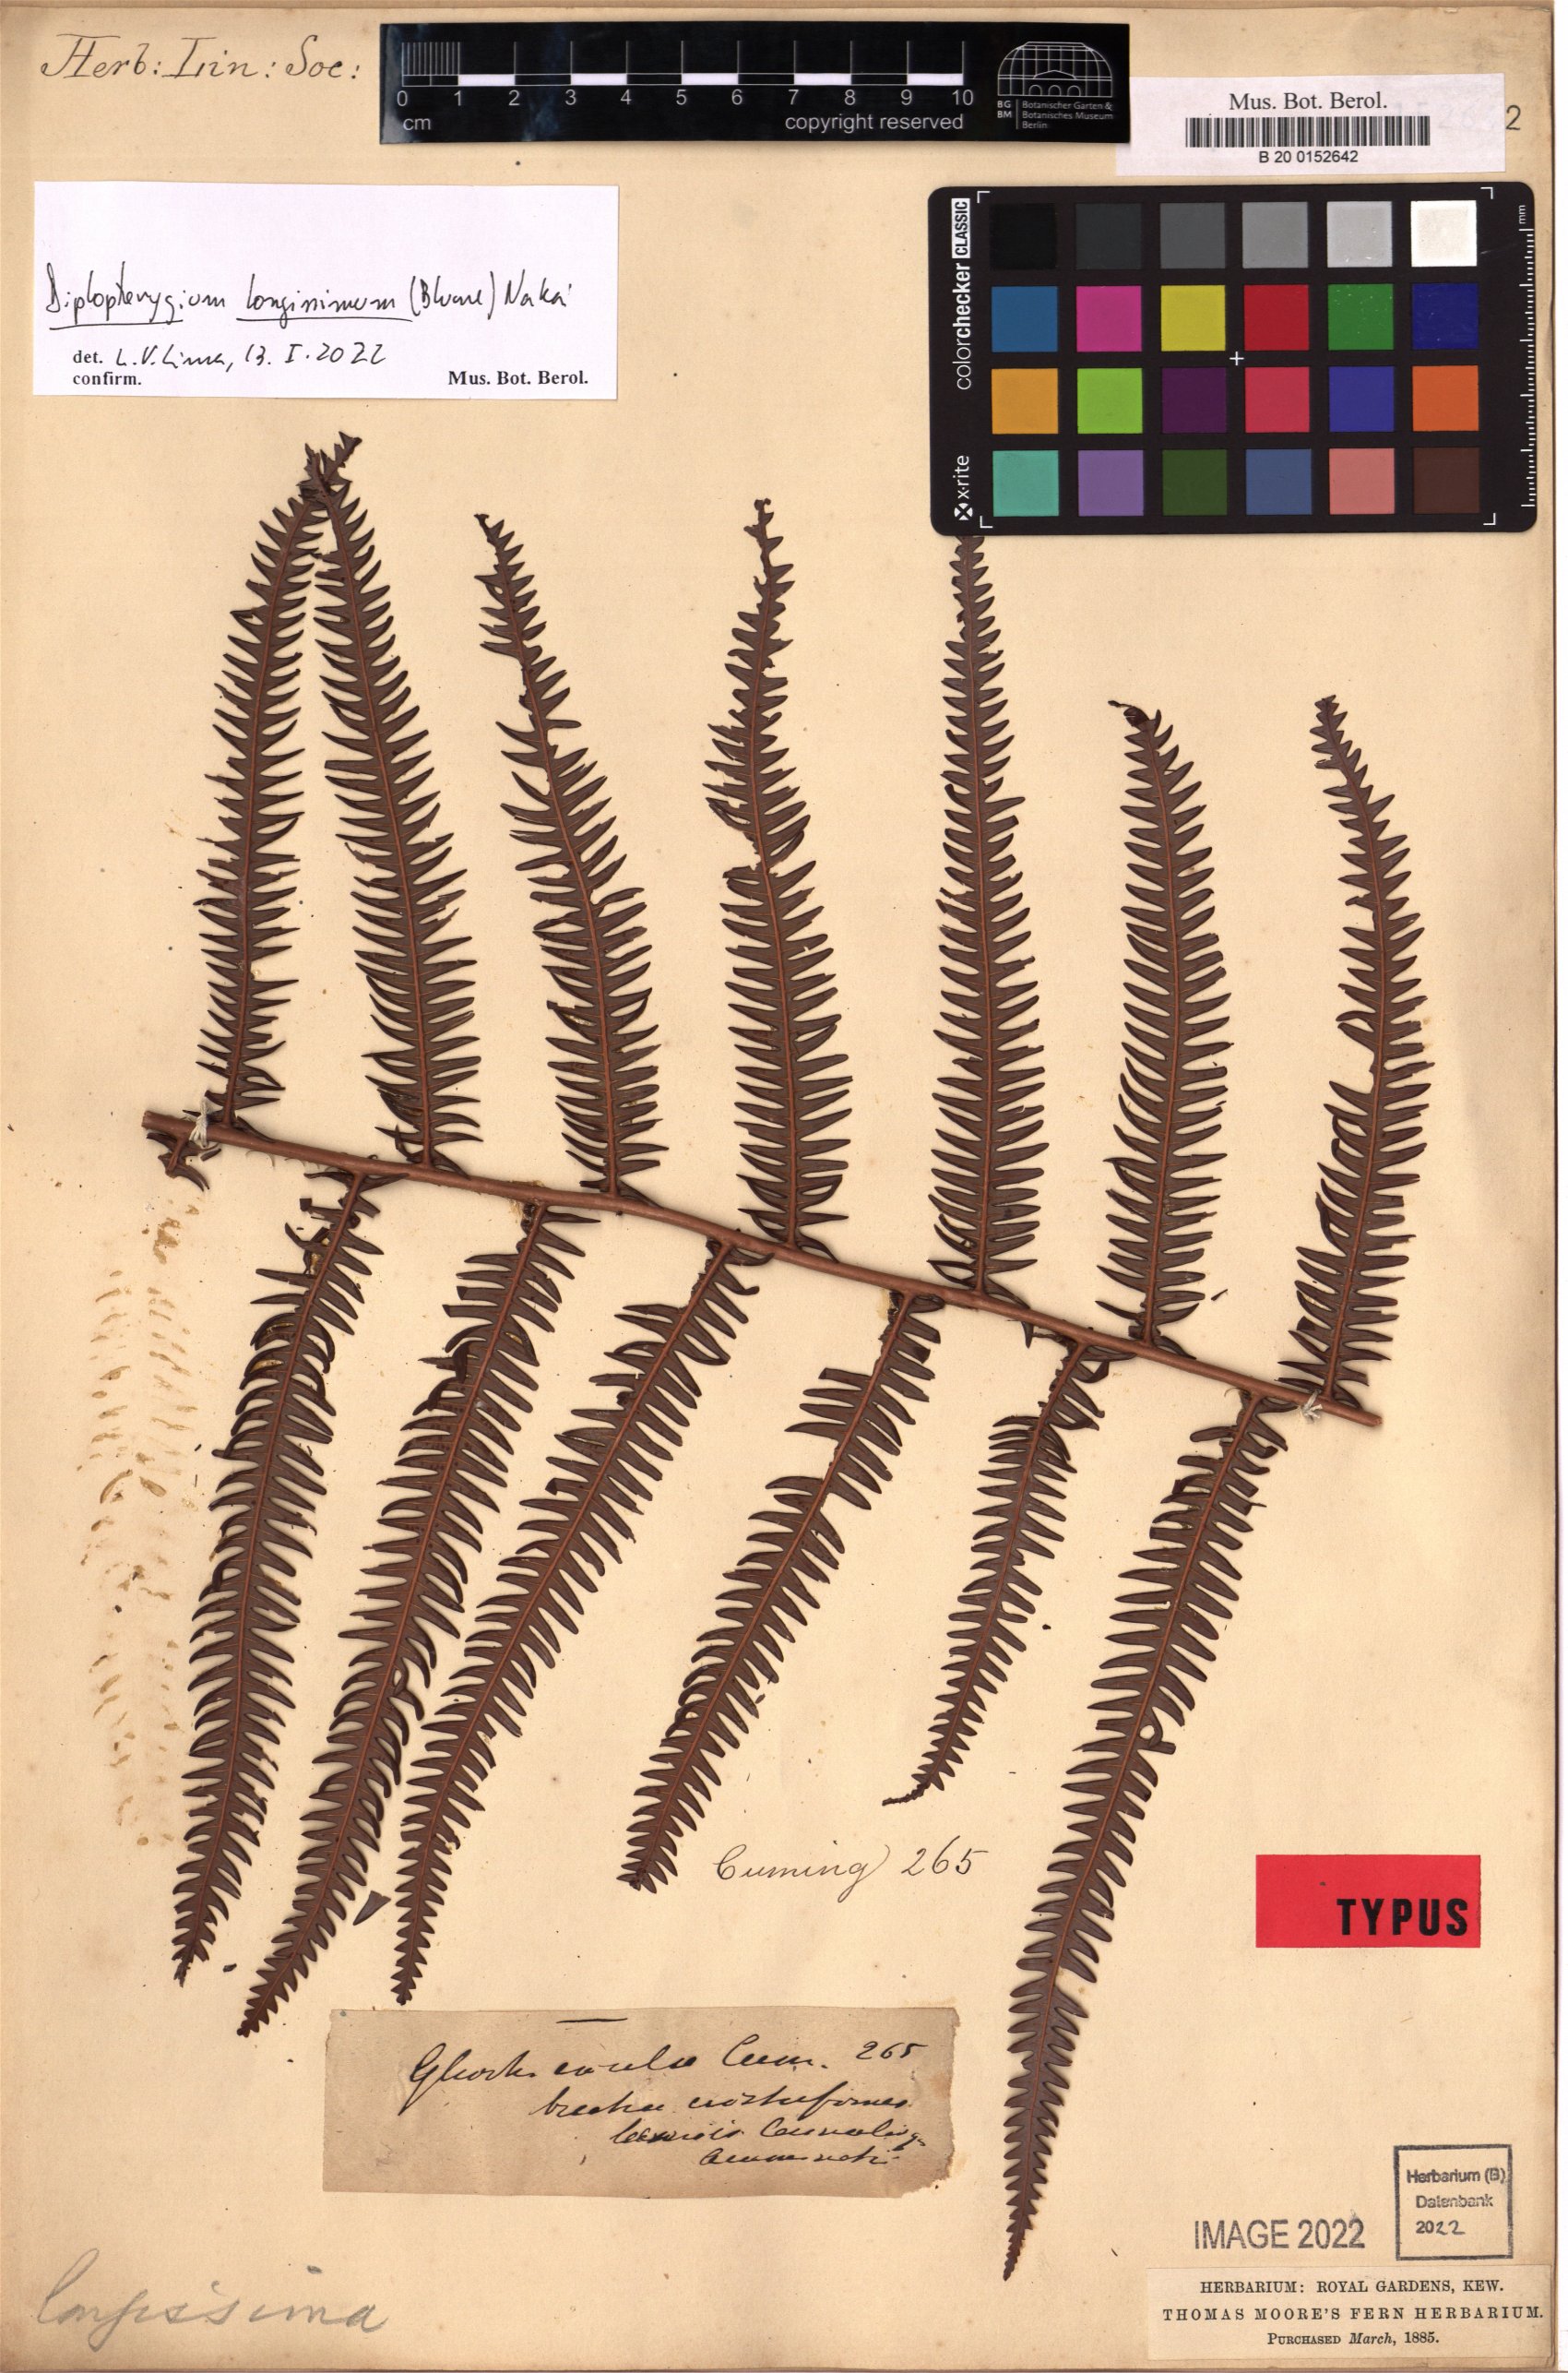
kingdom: Plantae
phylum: Tracheophyta
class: Polypodiopsida
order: Gleicheniales
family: Gleicheniaceae
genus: Diplopterygium
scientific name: Diplopterygium longissimum
